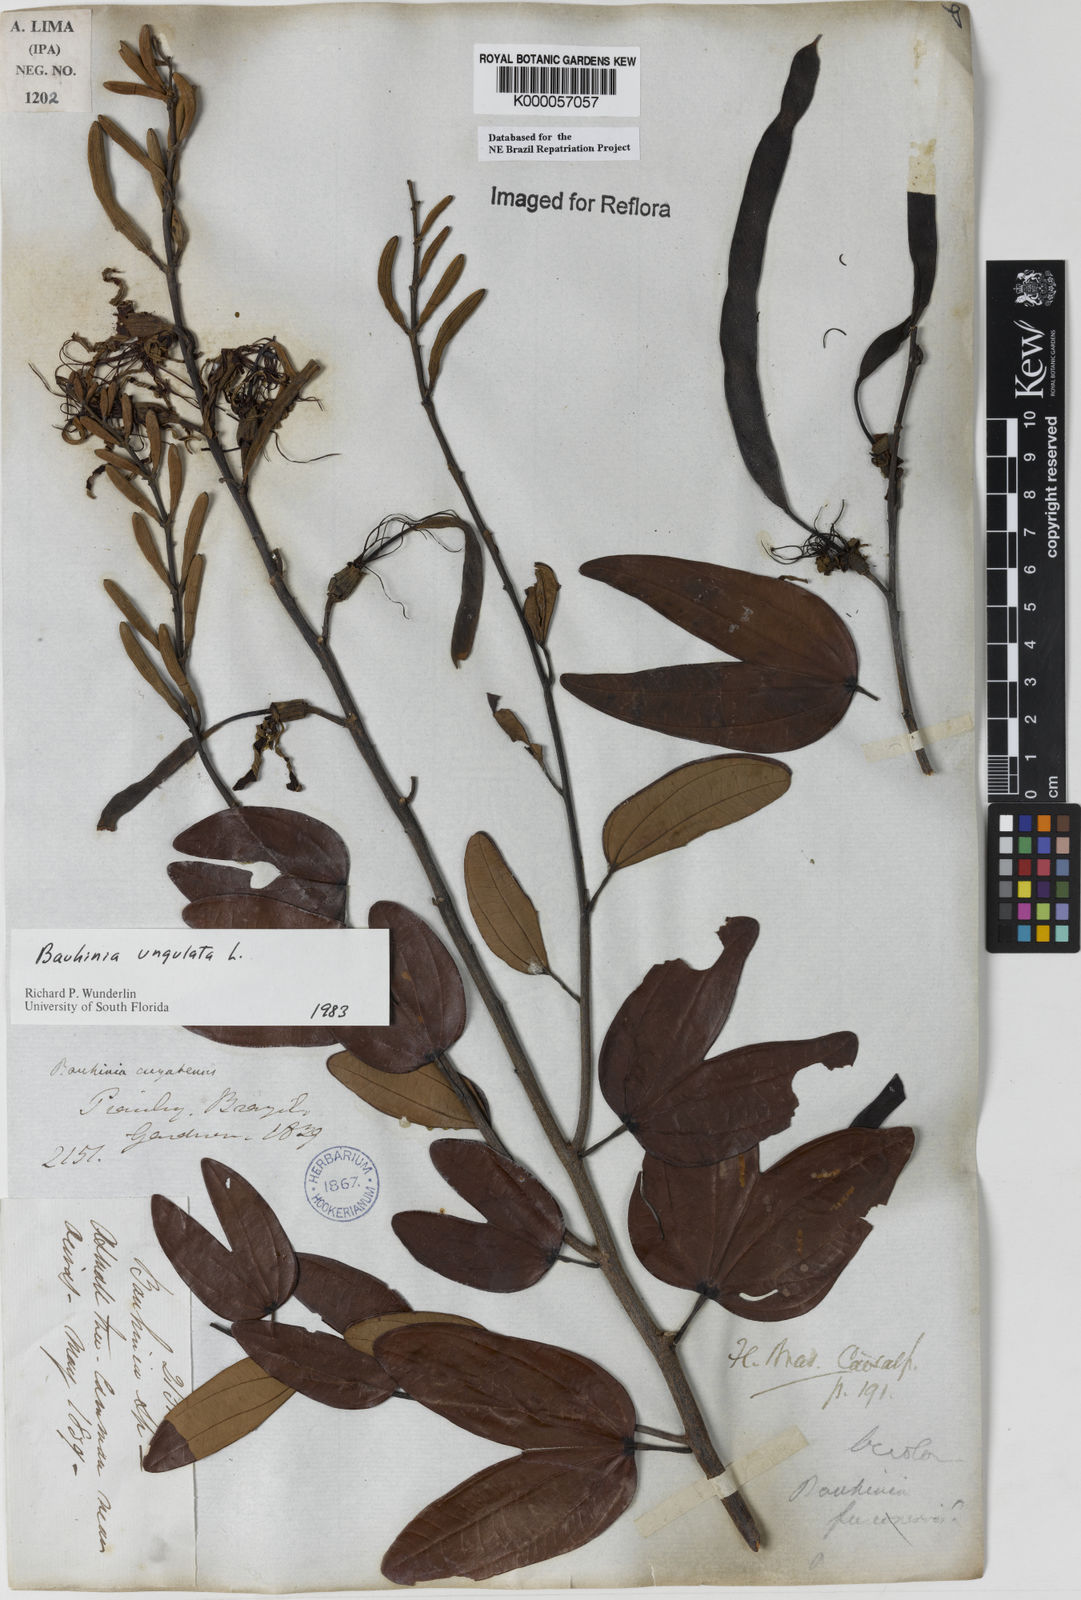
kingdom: Plantae
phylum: Tracheophyta
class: Magnoliopsida
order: Fabales
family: Fabaceae
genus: Bauhinia
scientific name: Bauhinia ungulata
